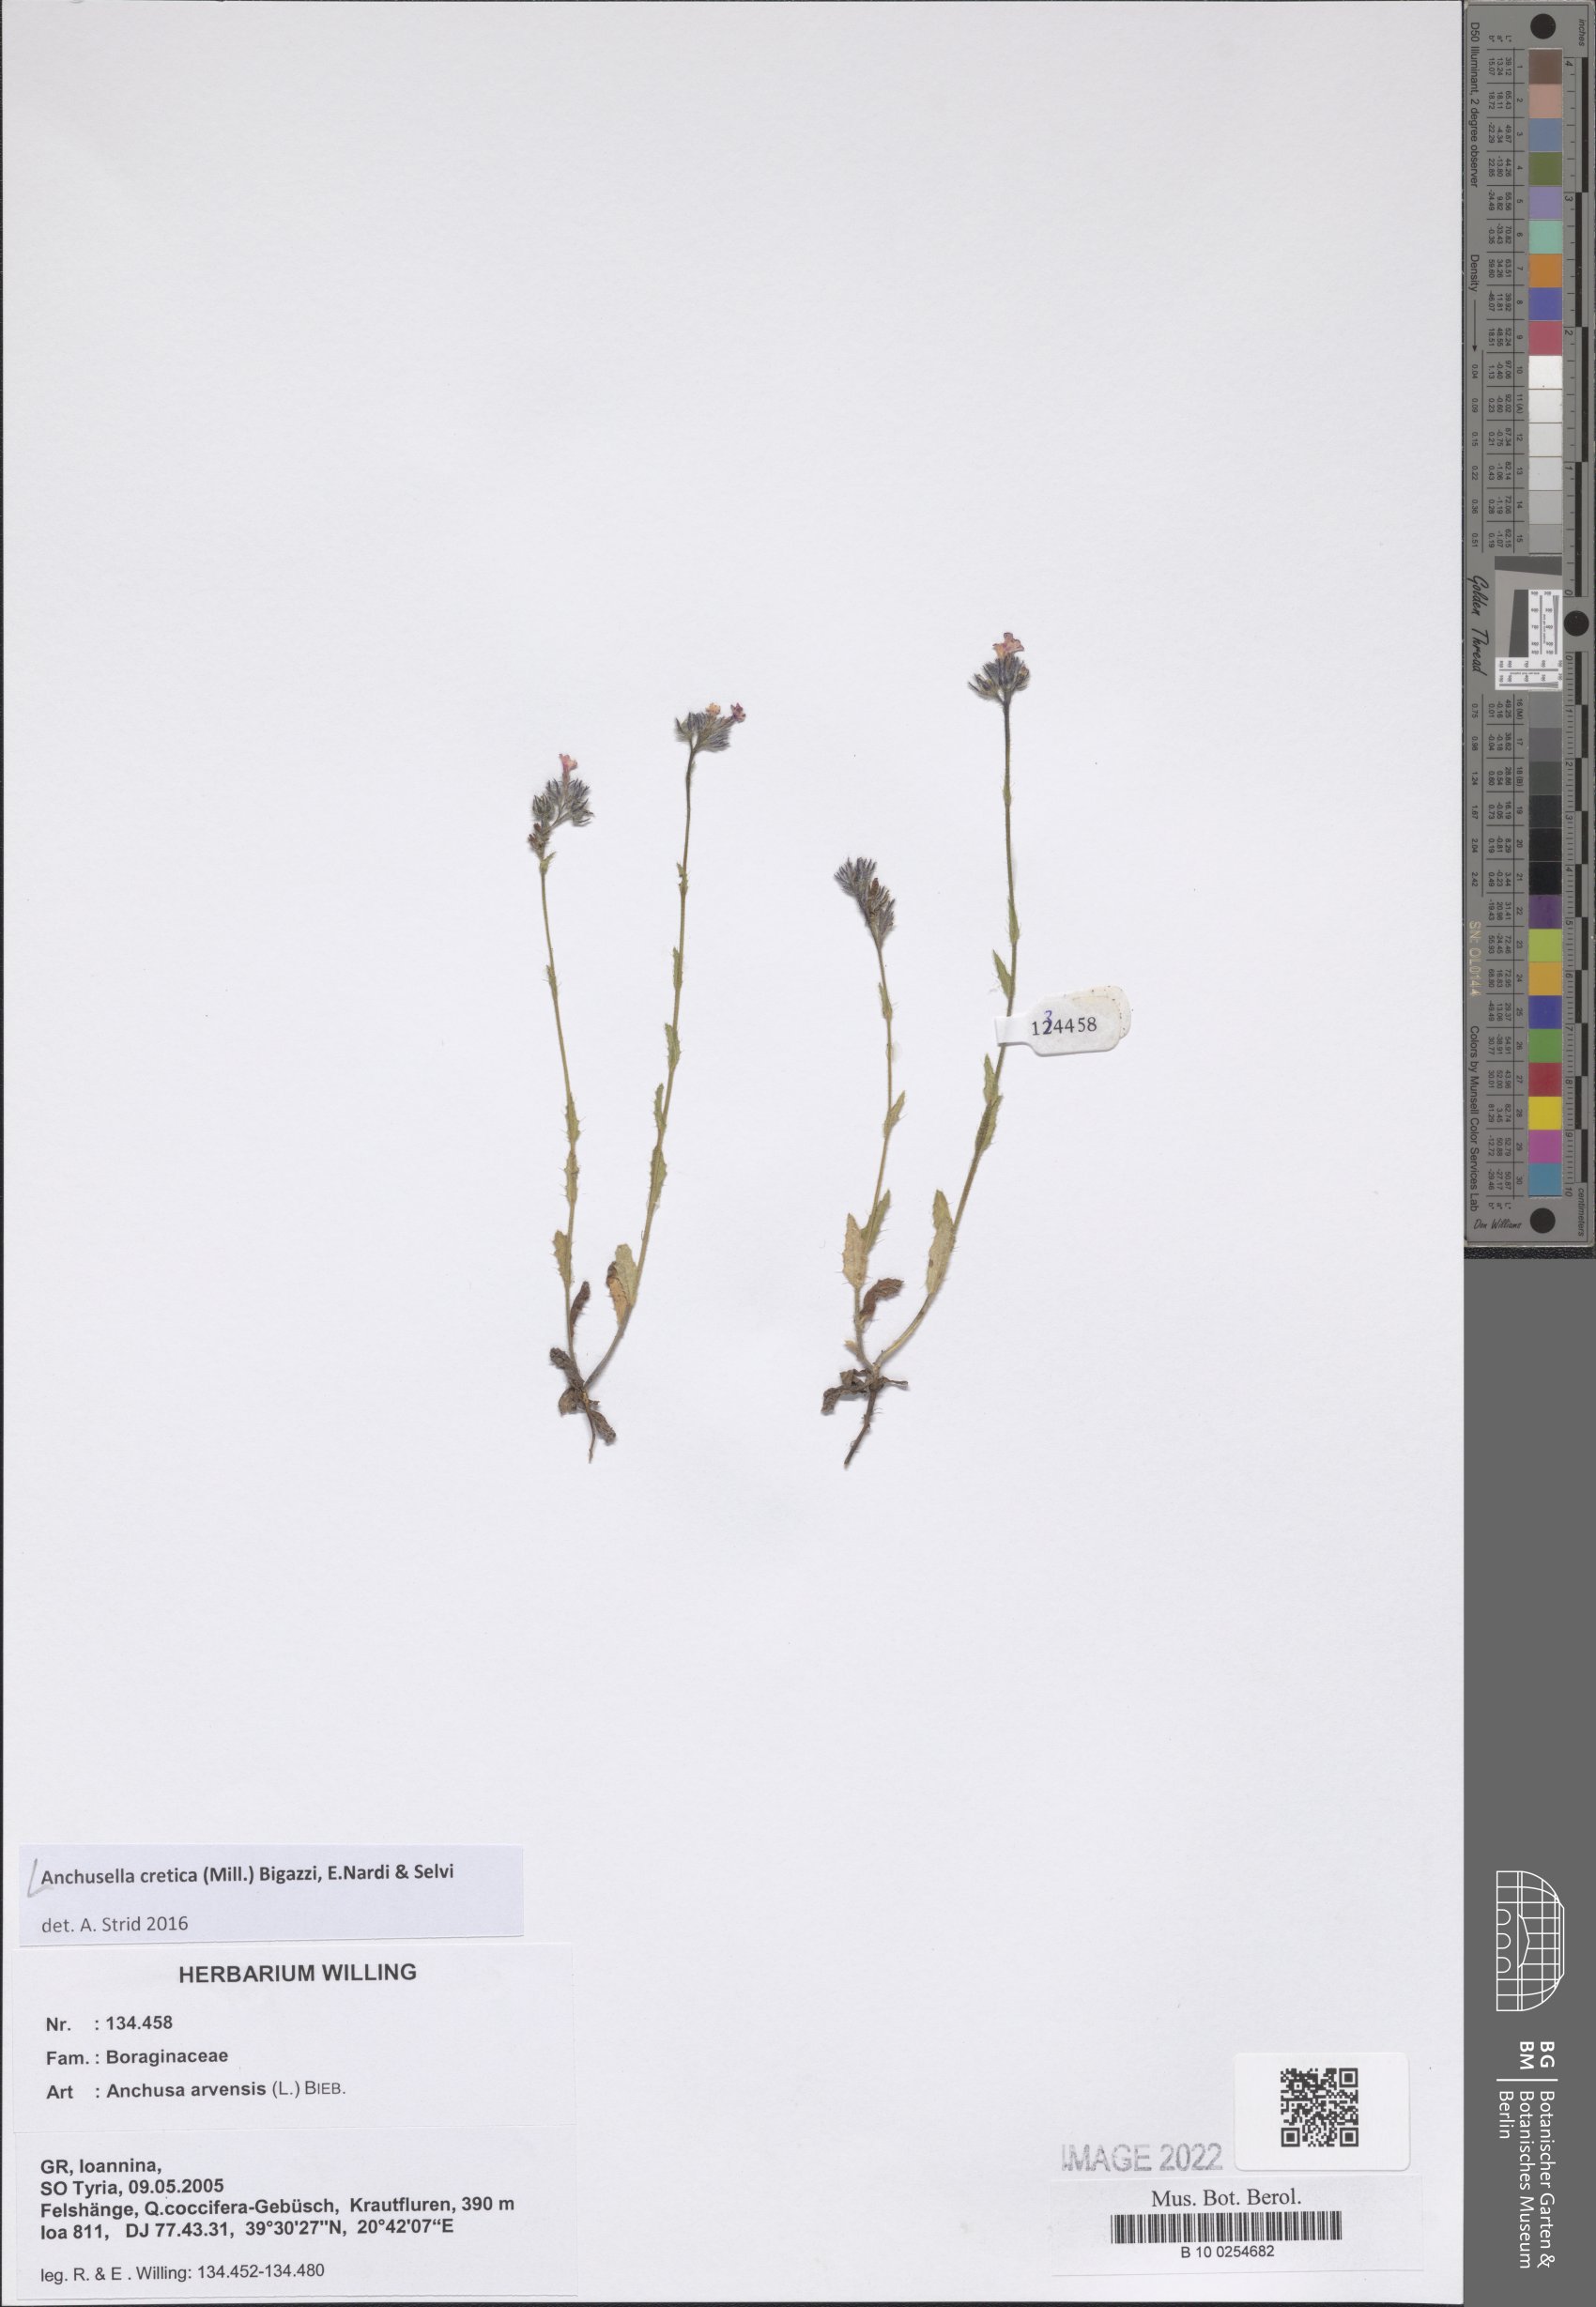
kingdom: Plantae
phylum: Tracheophyta
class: Magnoliopsida
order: Boraginales
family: Boraginaceae
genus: Anchusella
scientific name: Anchusella cretica
